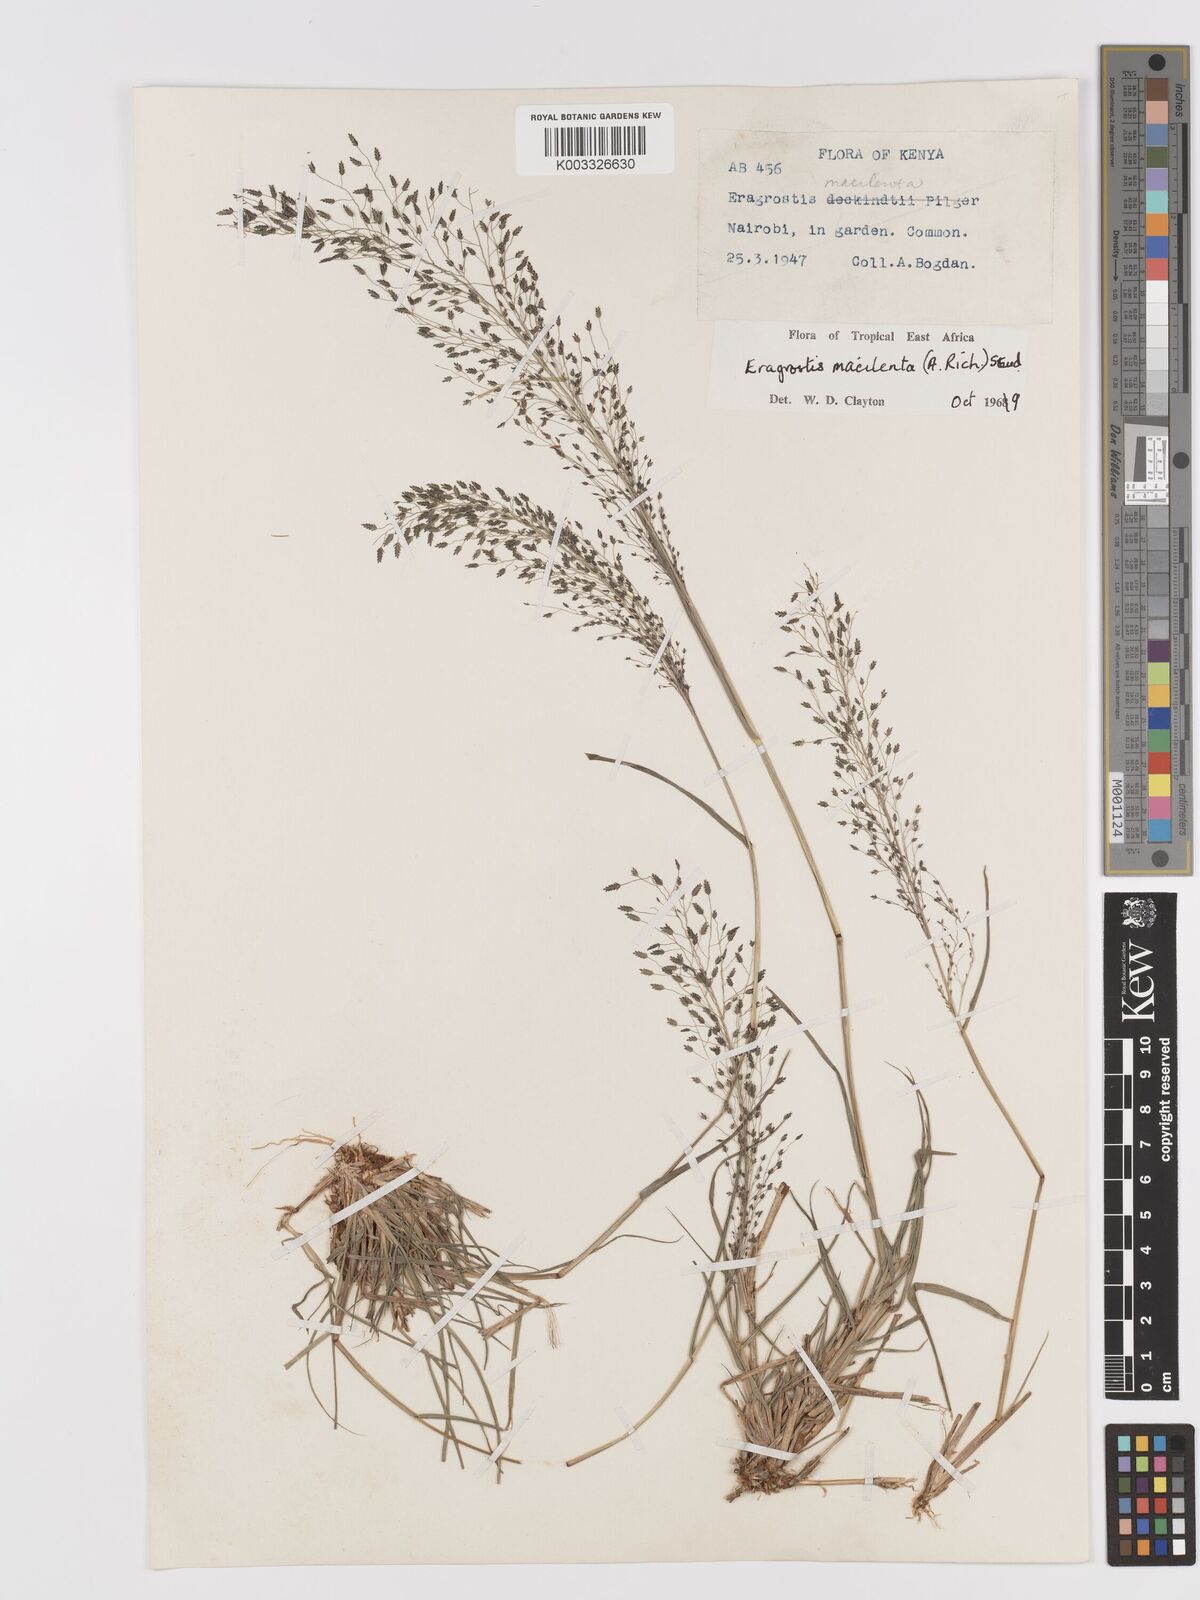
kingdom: Plantae
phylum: Tracheophyta
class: Liliopsida
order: Poales
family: Poaceae
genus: Eragrostis
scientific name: Eragrostis macilenta
